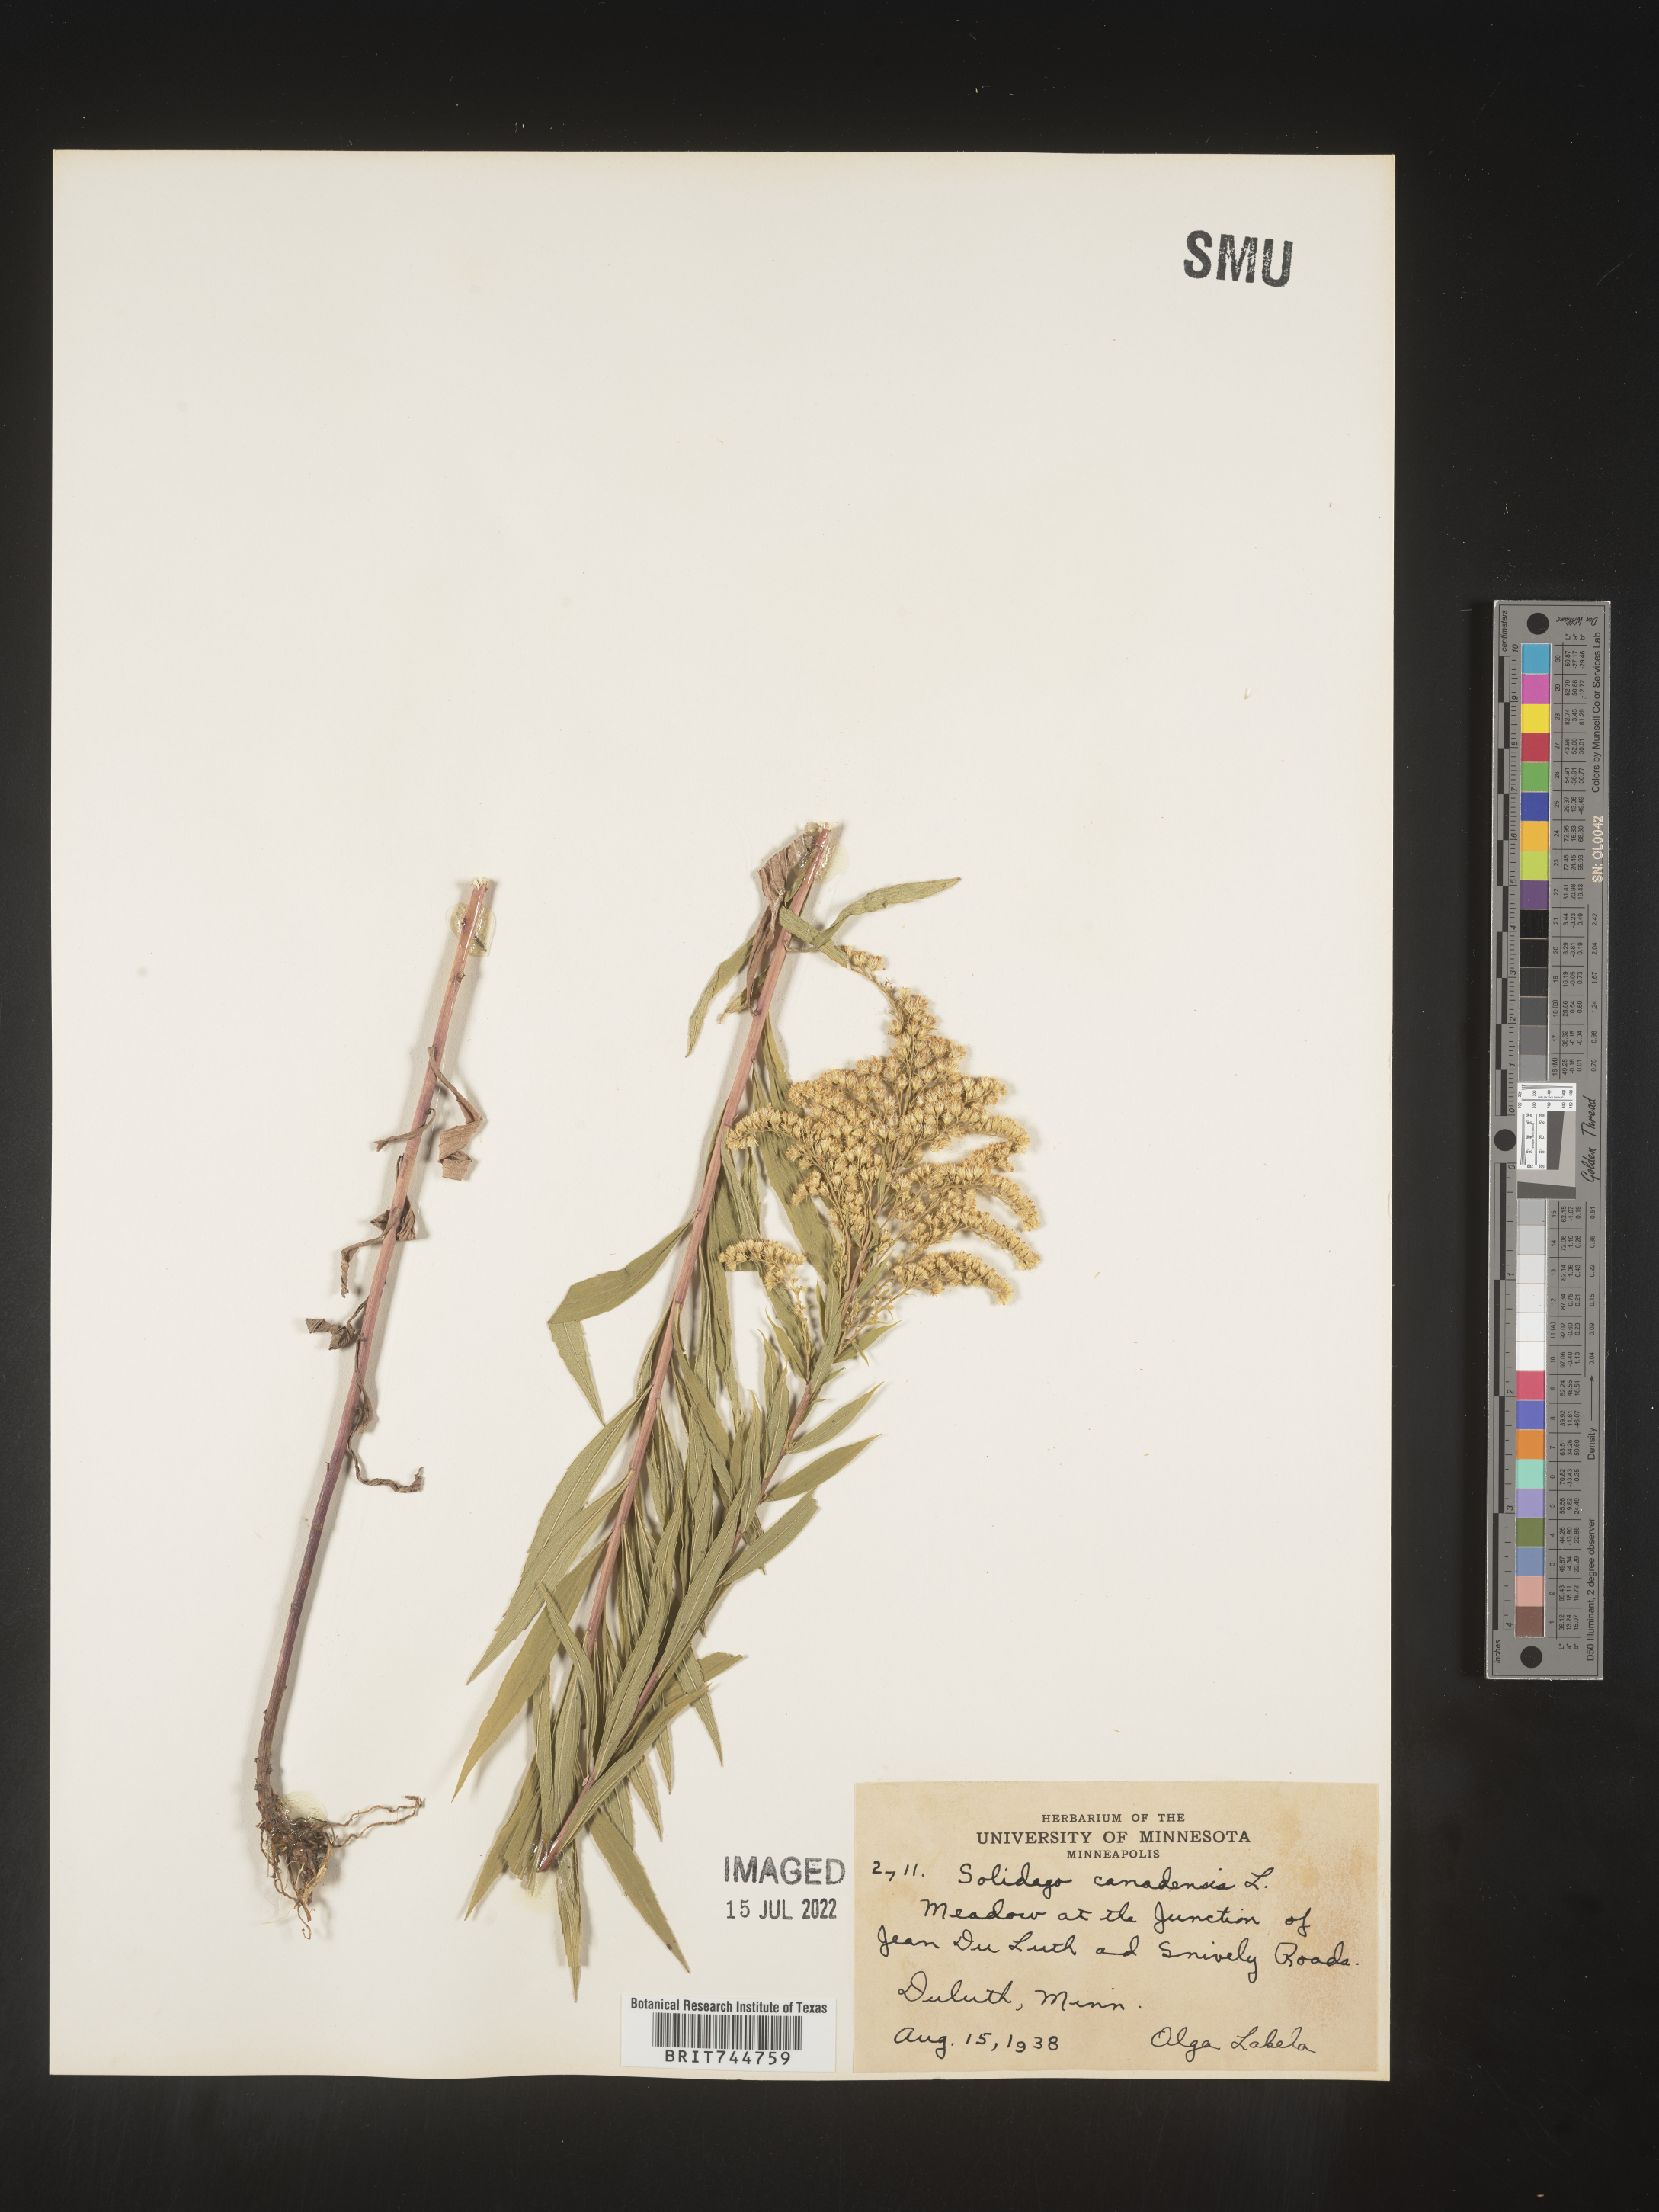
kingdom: Plantae
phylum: Tracheophyta
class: Magnoliopsida
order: Asterales
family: Asteraceae
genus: Solidago
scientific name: Solidago canadensis
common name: Canada goldenrod
